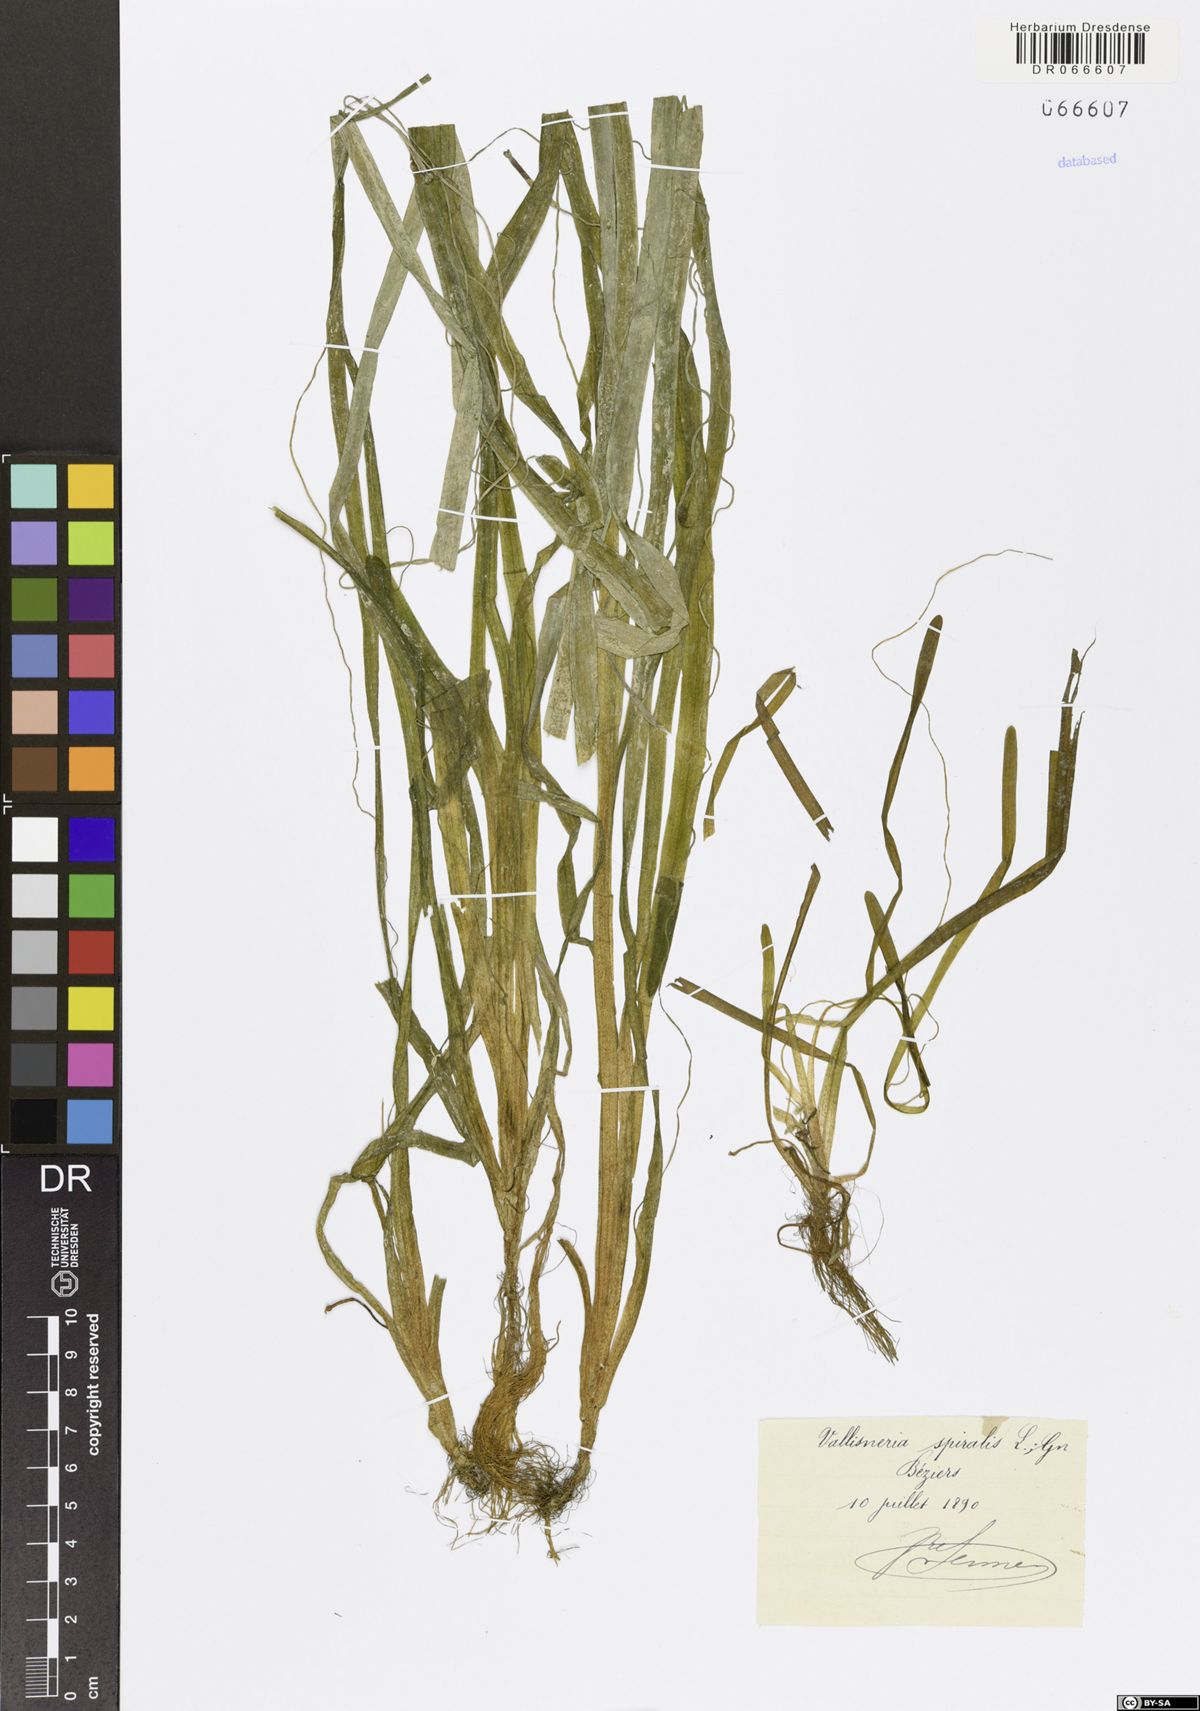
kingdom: Plantae
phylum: Tracheophyta
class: Liliopsida
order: Alismatales
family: Hydrocharitaceae
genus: Vallisneria
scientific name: Vallisneria spiralis
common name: Tapegrass
